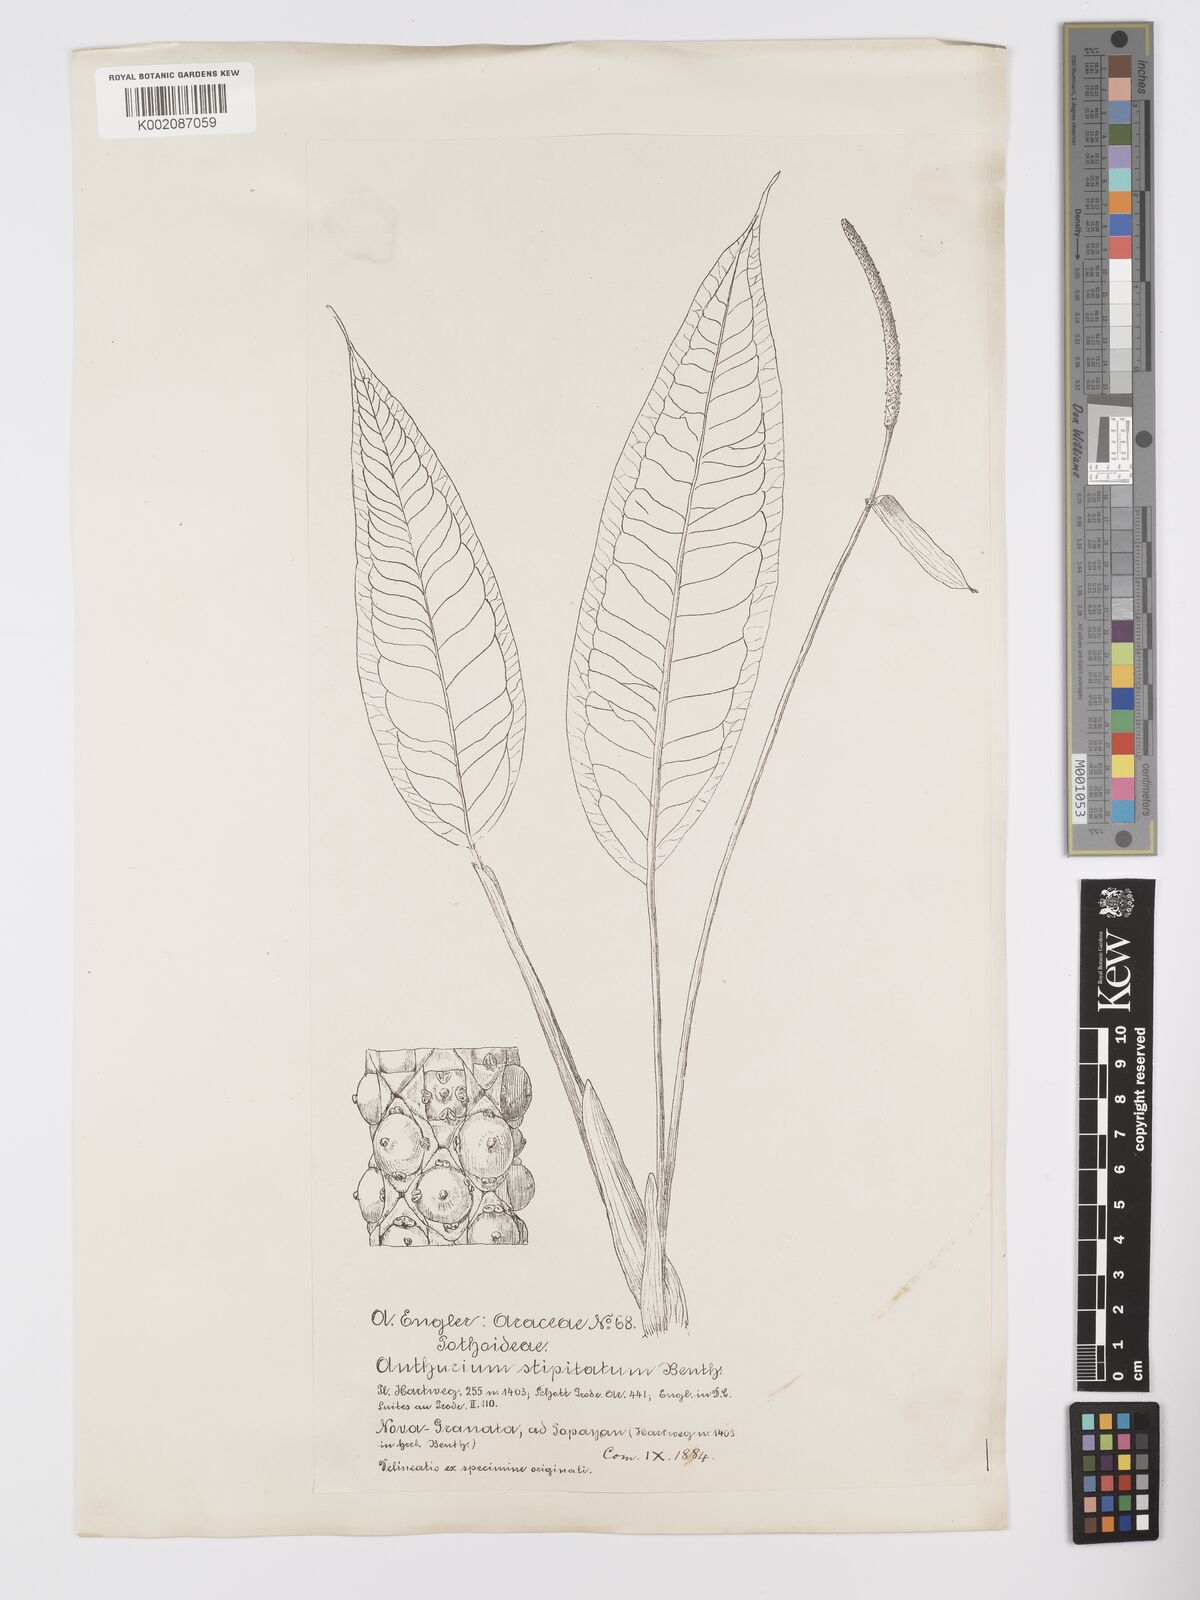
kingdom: Plantae
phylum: Tracheophyta
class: Liliopsida
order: Alismatales
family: Araceae
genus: Anthurium
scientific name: Anthurium stipitatum
